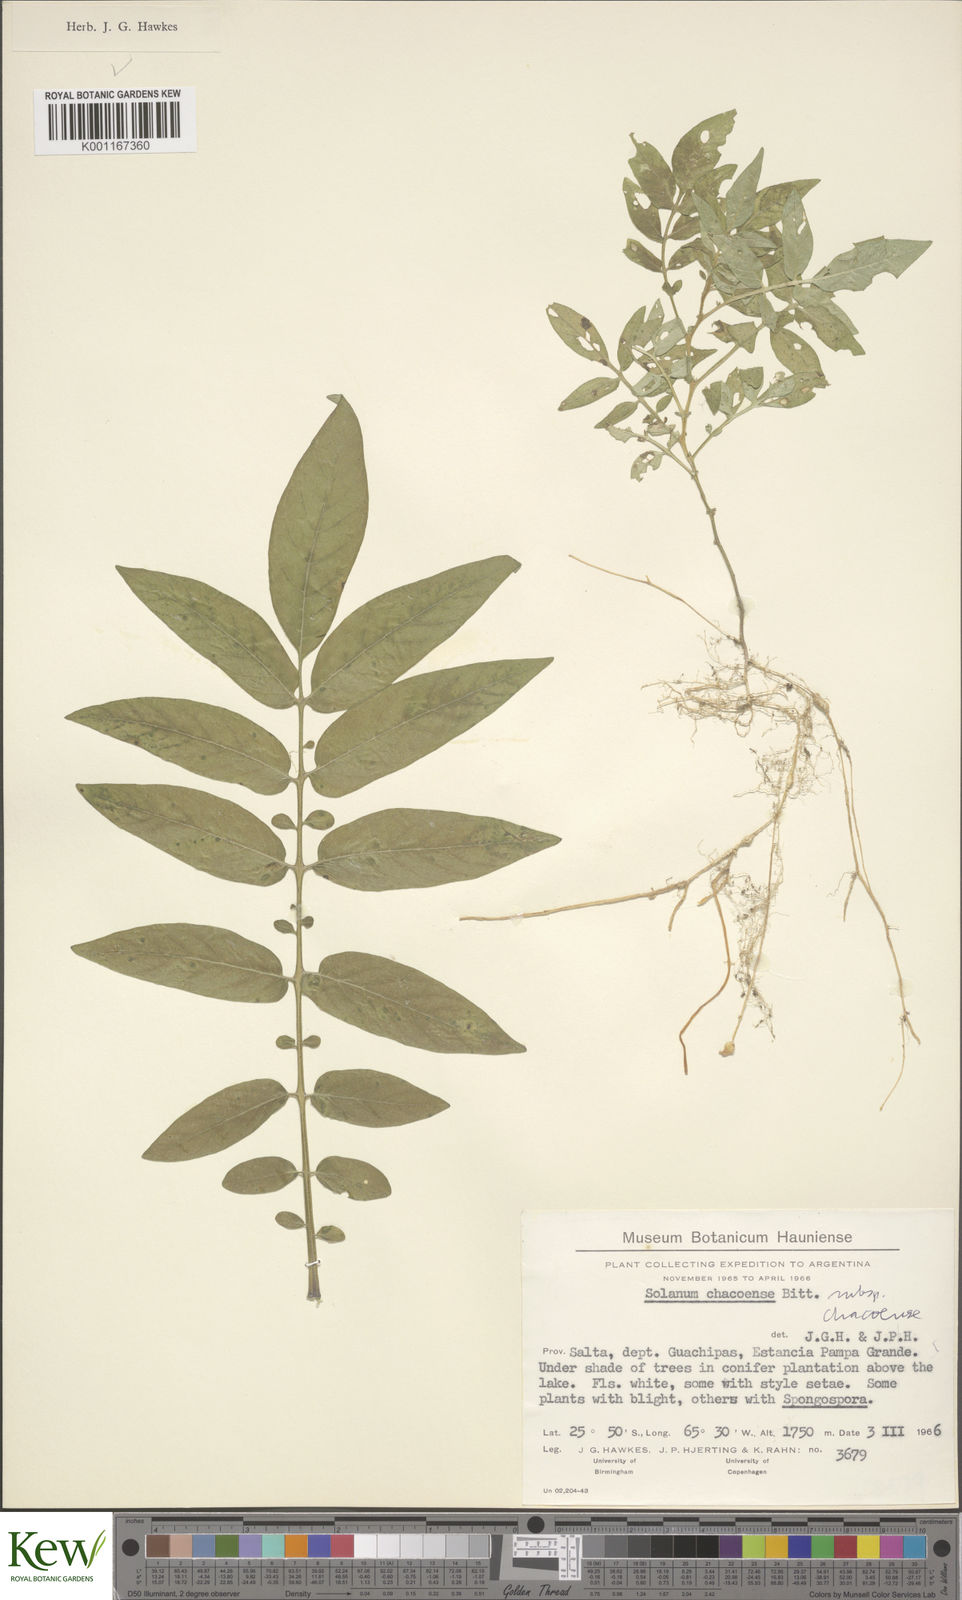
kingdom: Plantae
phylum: Tracheophyta
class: Magnoliopsida
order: Solanales
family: Solanaceae
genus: Solanum
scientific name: Solanum chacoense
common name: Chaco potato
